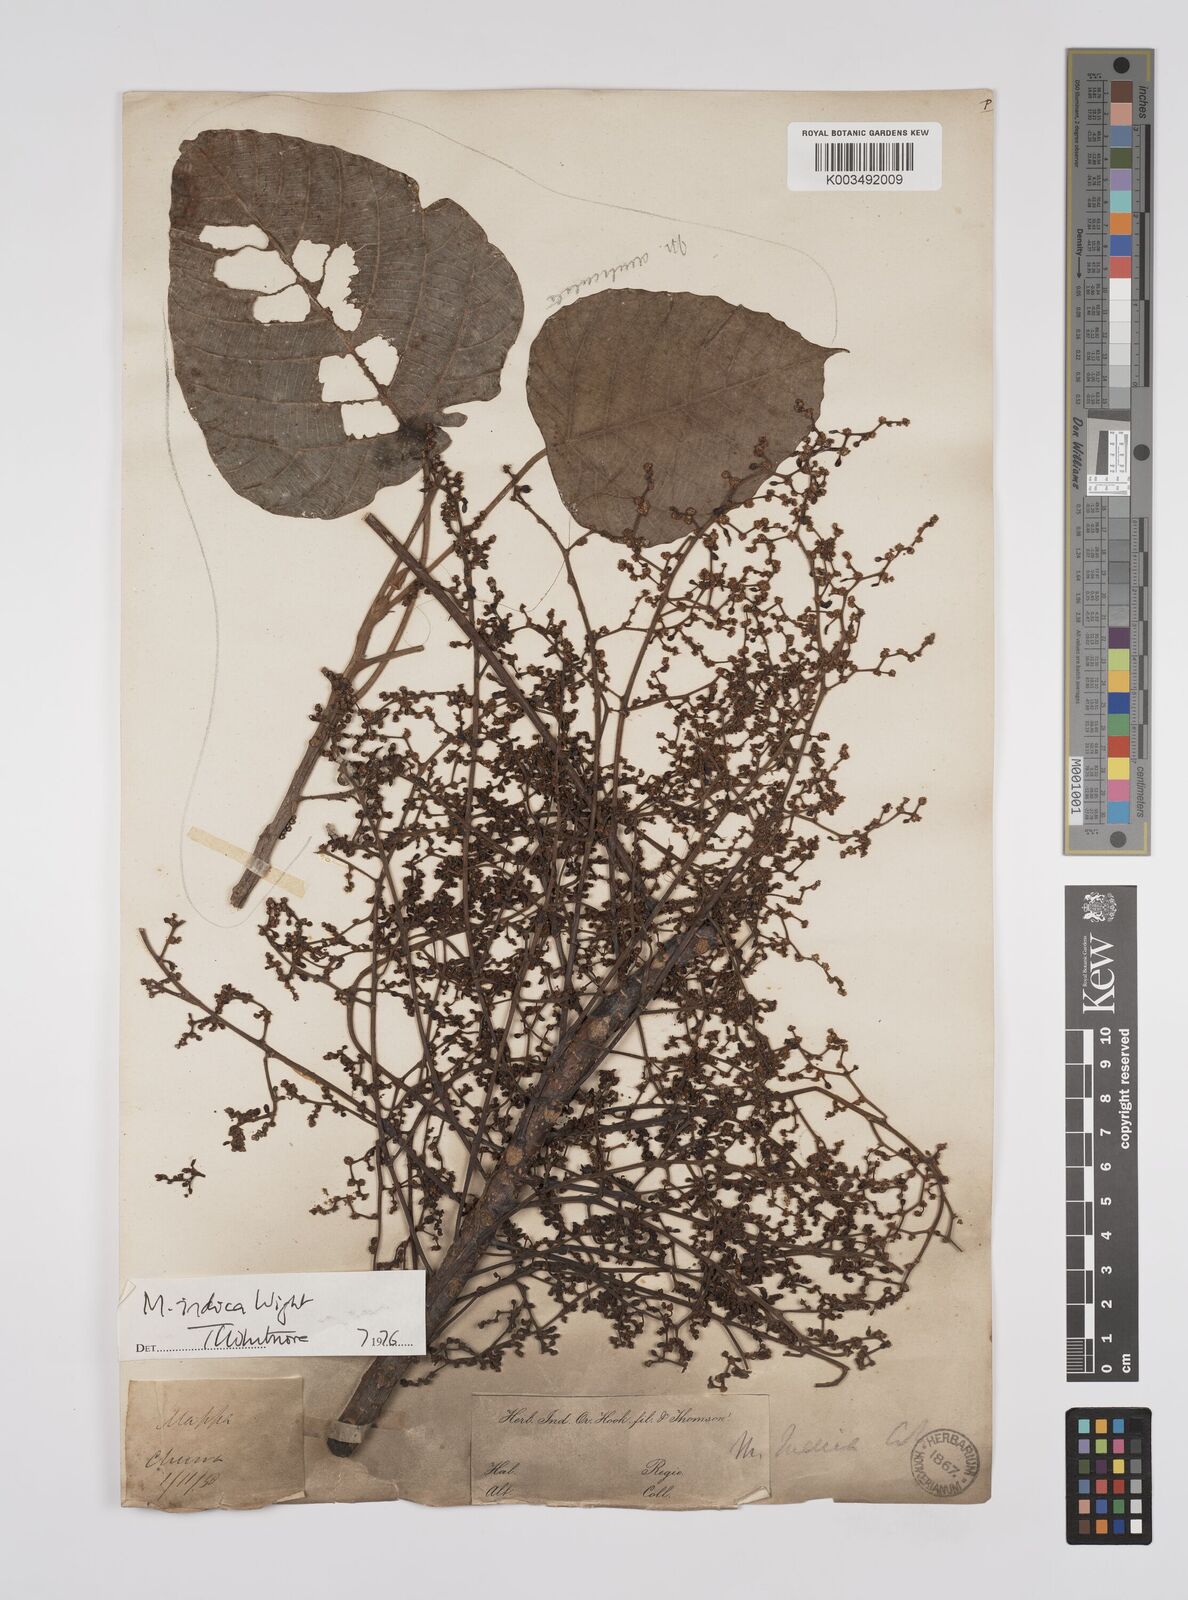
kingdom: Plantae
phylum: Tracheophyta
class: Magnoliopsida
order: Malpighiales
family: Euphorbiaceae
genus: Macaranga
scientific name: Macaranga indica
